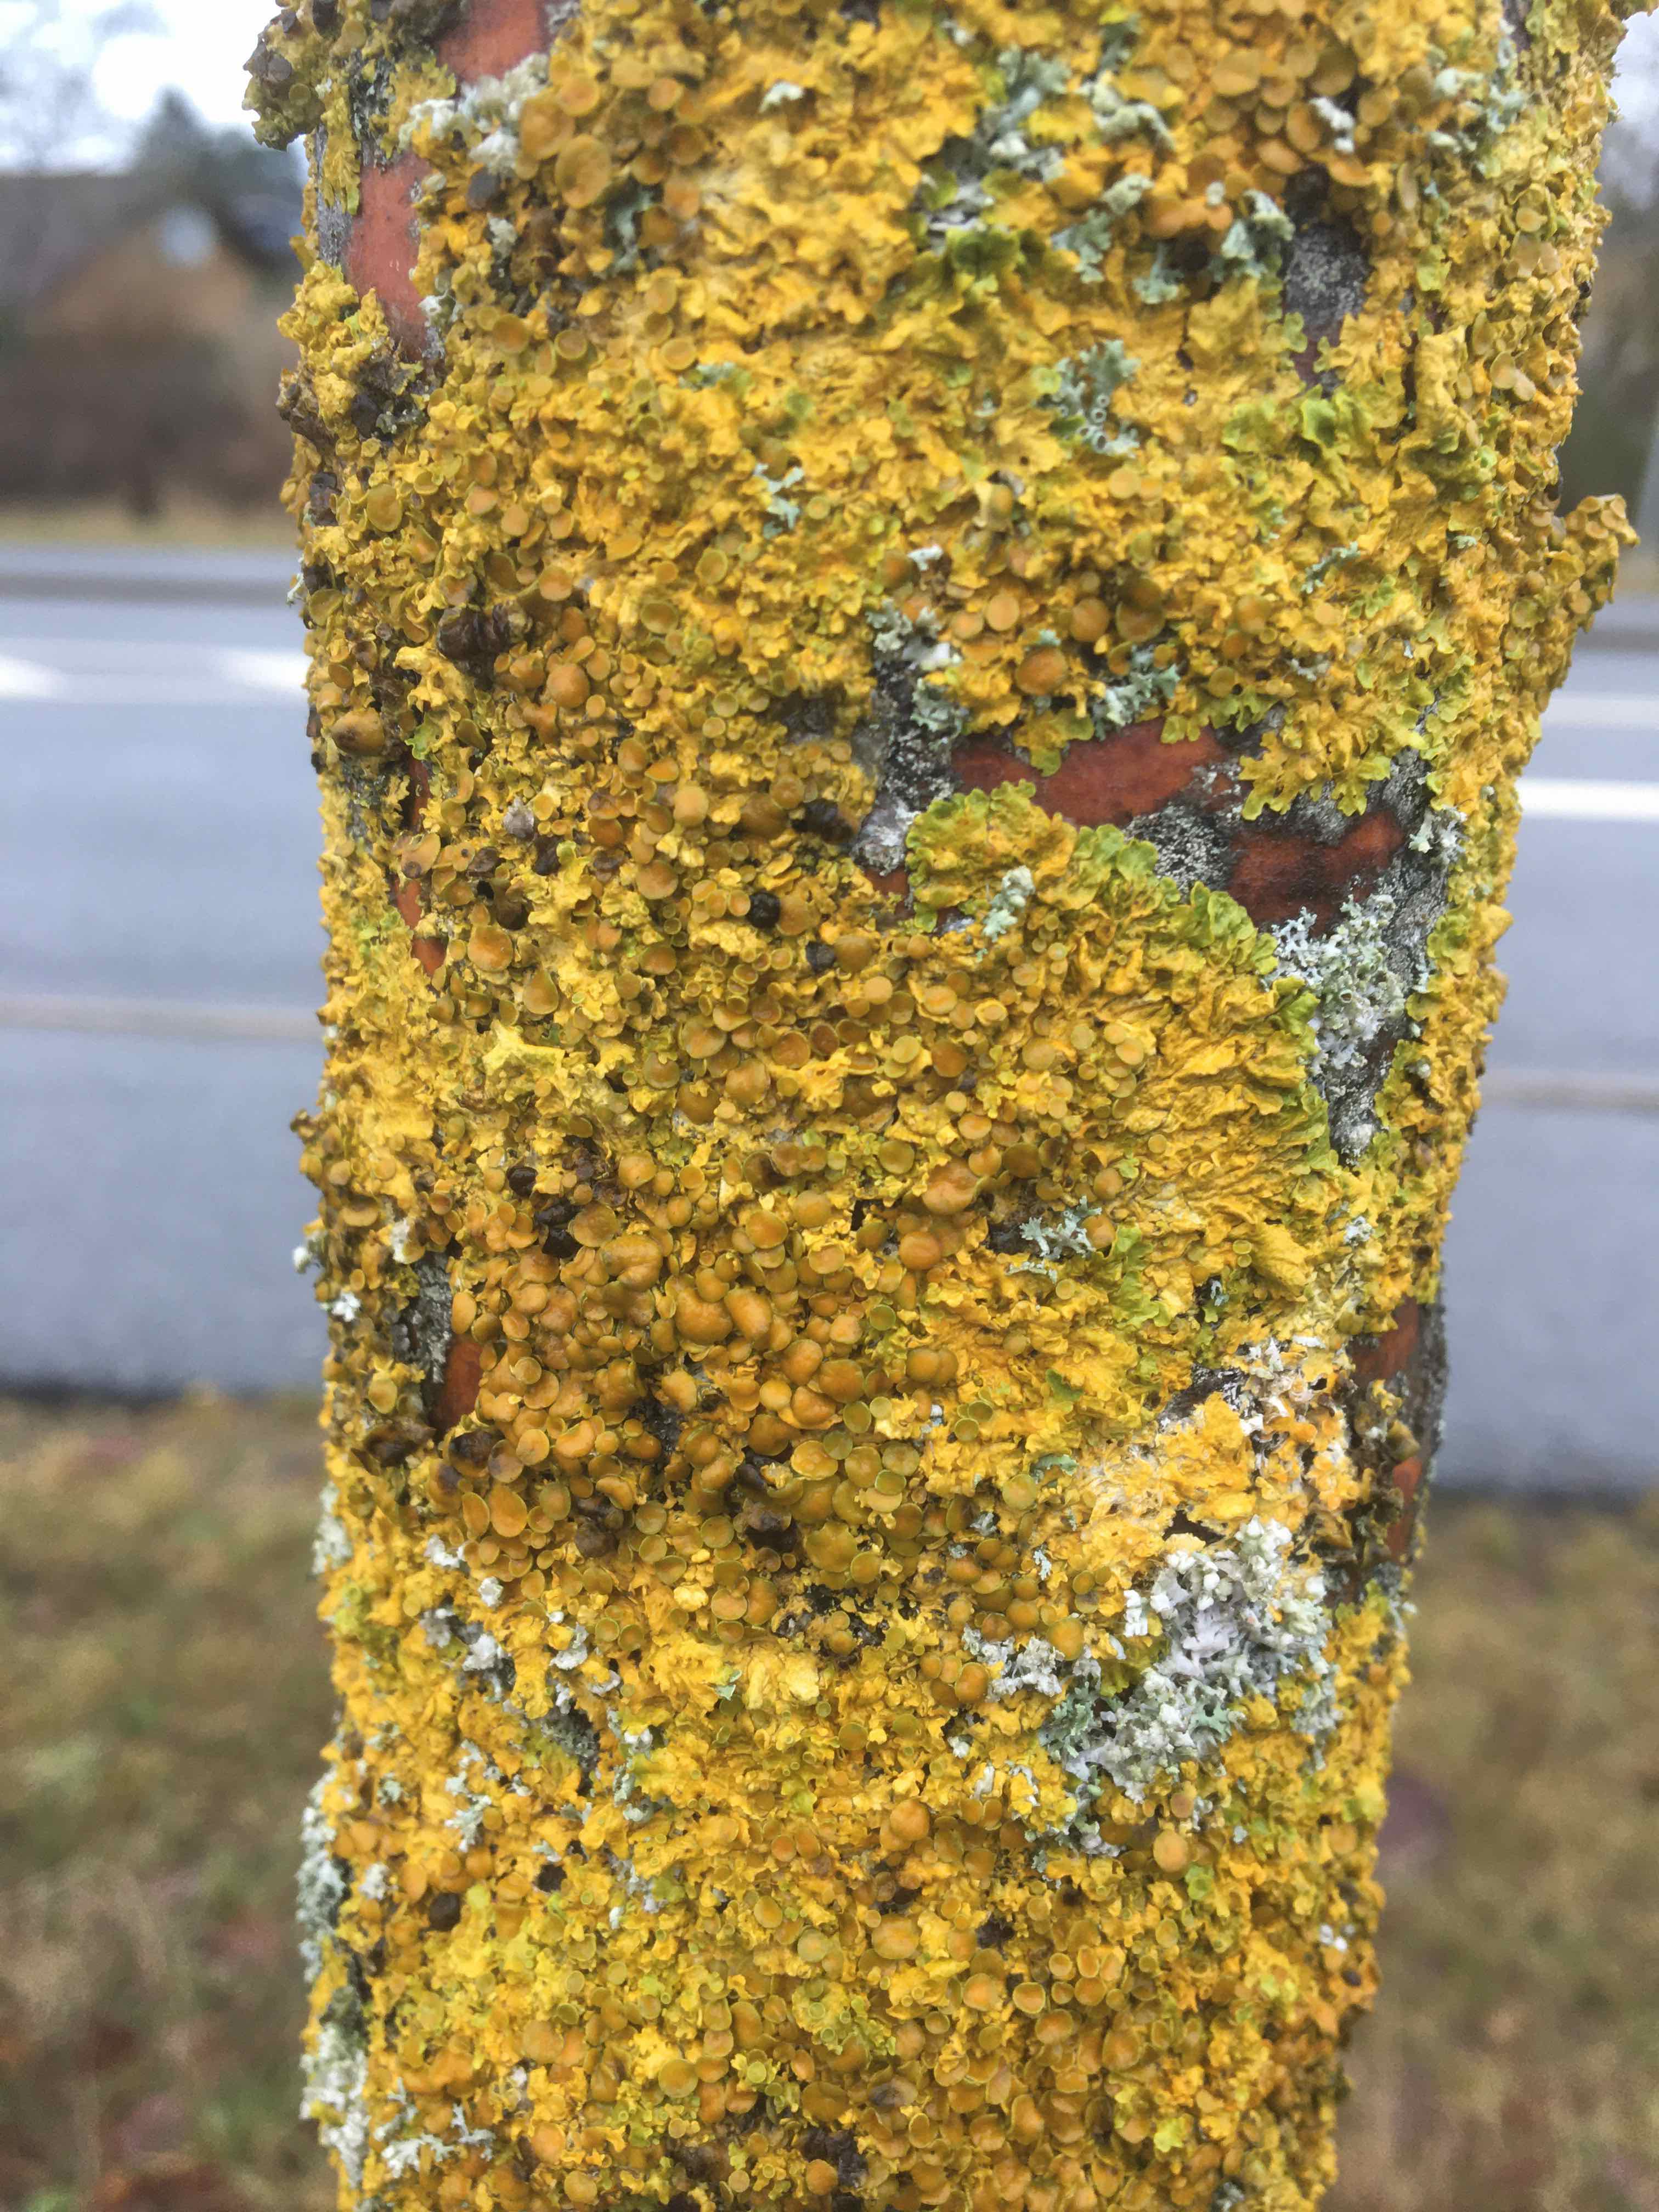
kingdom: Fungi
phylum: Ascomycota
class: Lecanoromycetes
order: Teloschistales
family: Teloschistaceae
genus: Xanthoria
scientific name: Xanthoria parietina
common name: almindelig væggelav
